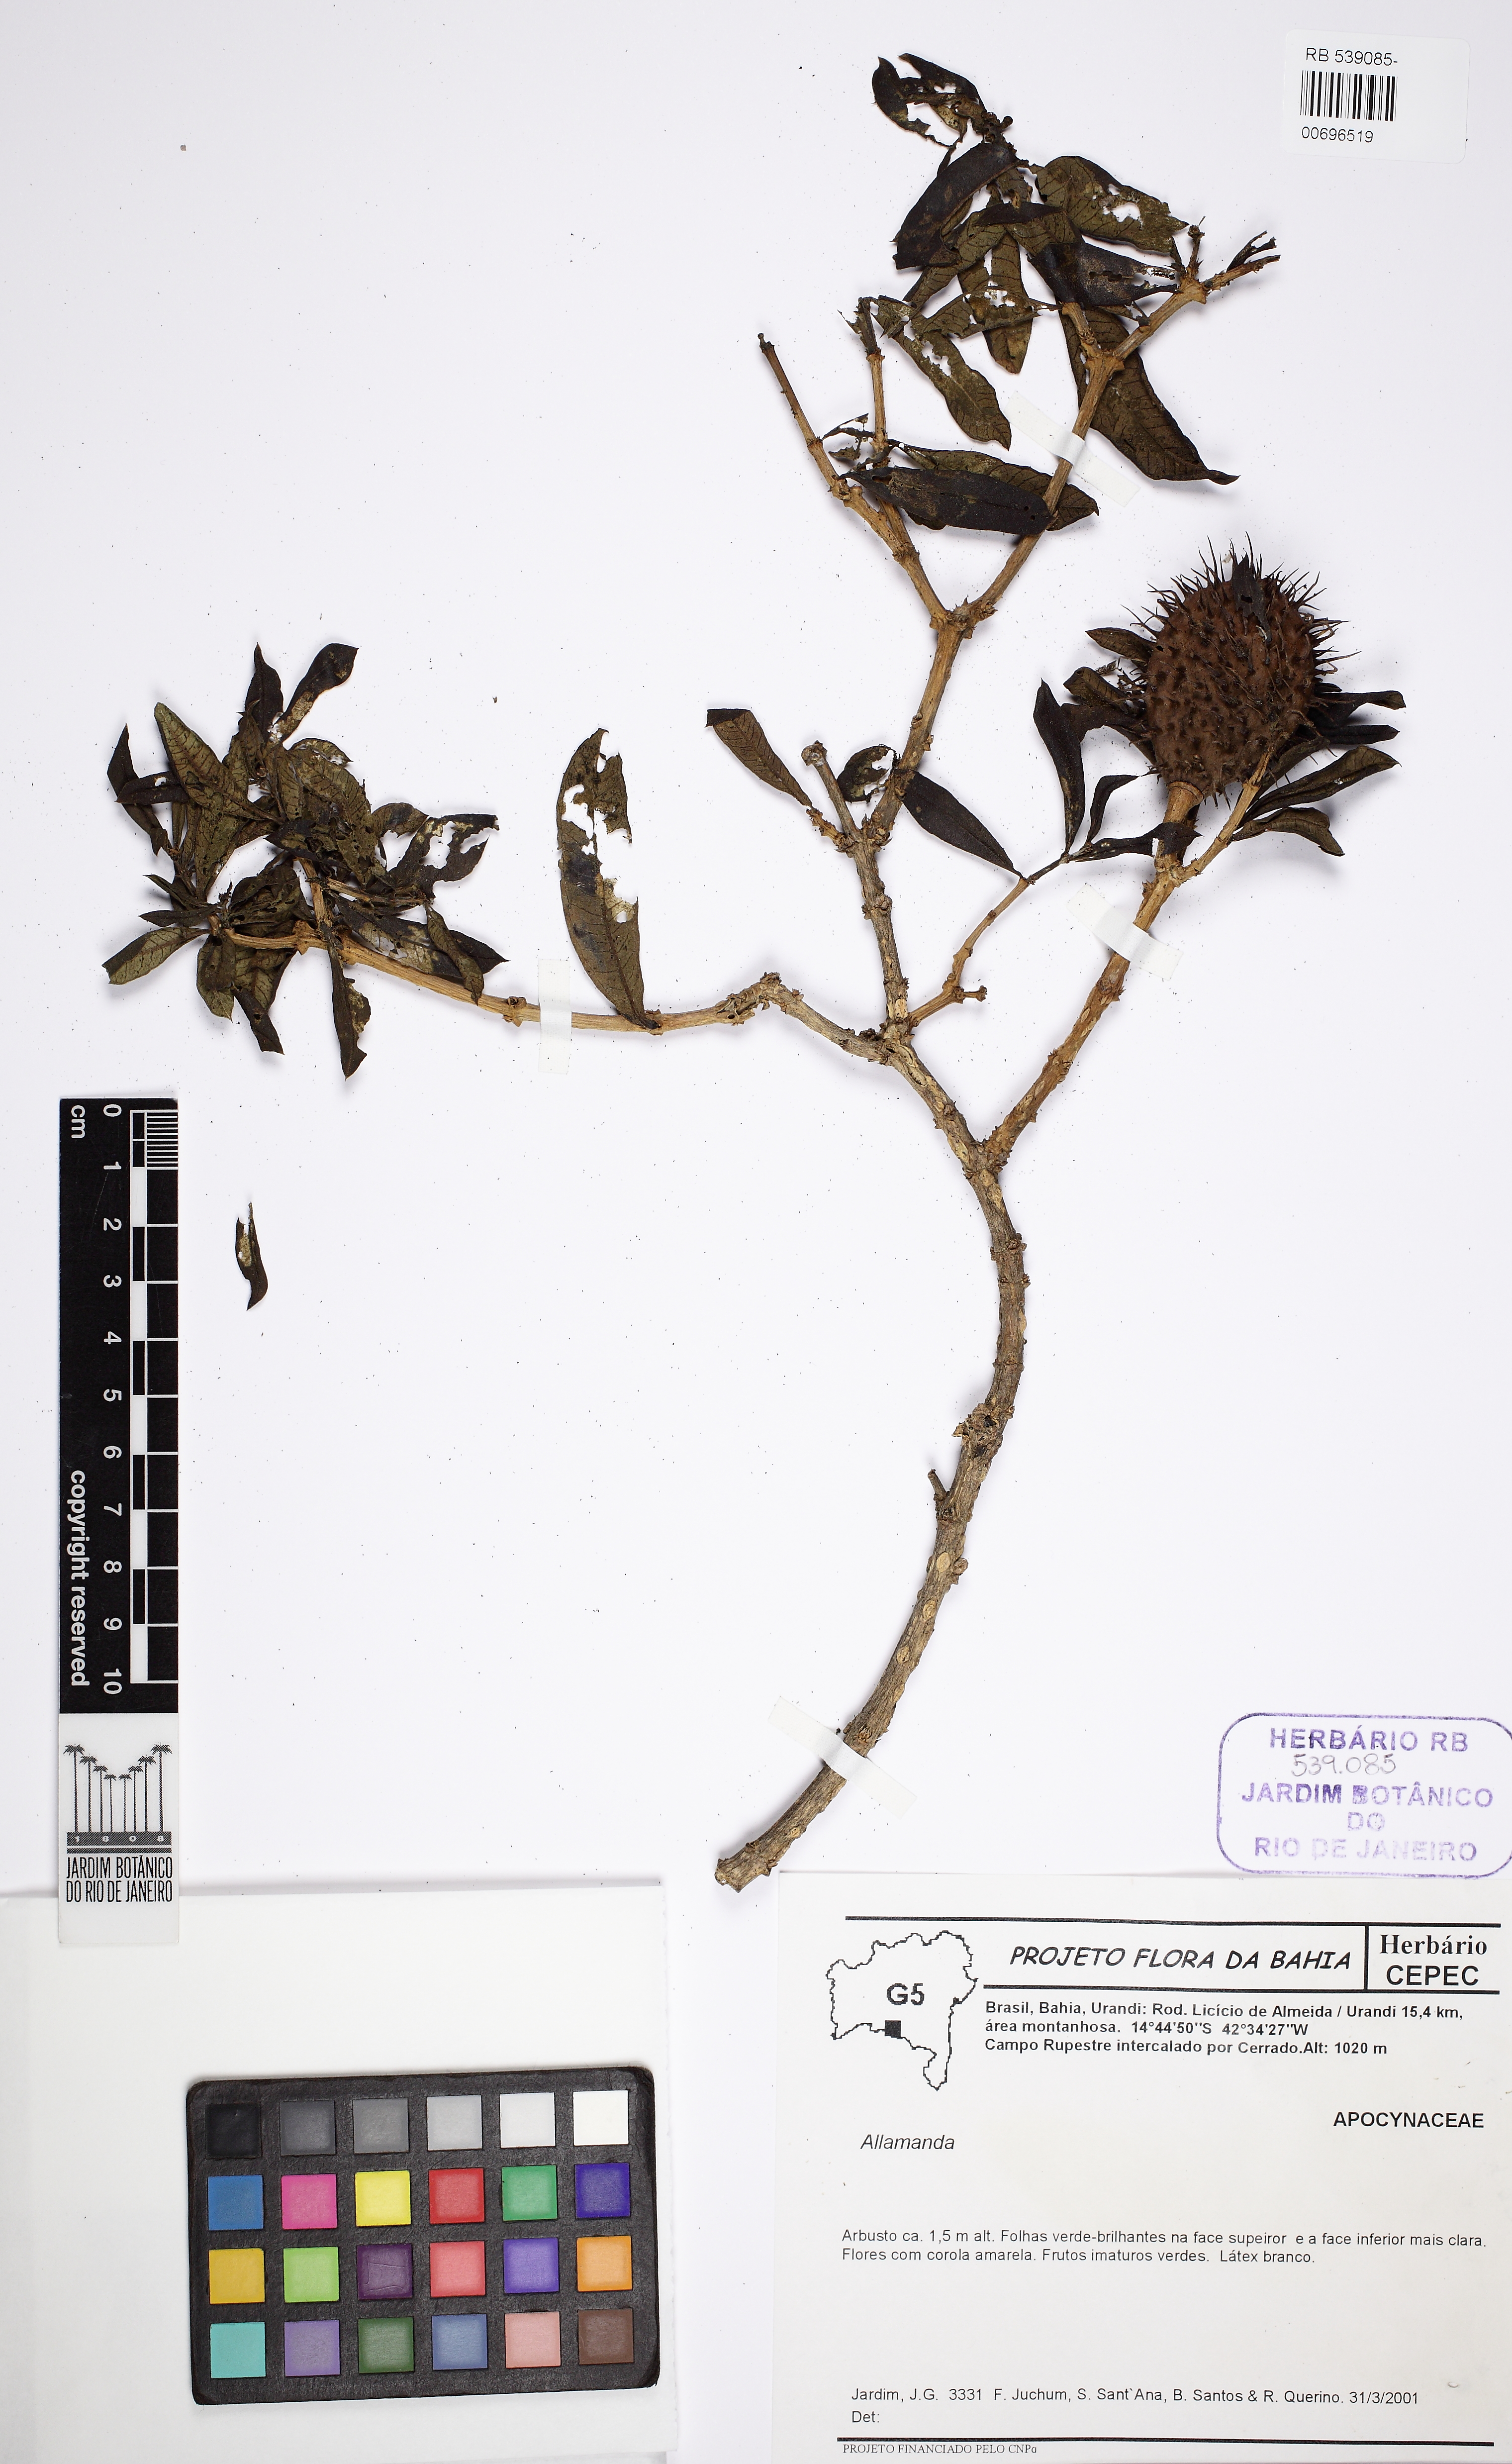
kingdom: Plantae
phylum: Tracheophyta
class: Magnoliopsida
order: Gentianales
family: Apocynaceae
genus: Allamanda
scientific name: Allamanda
